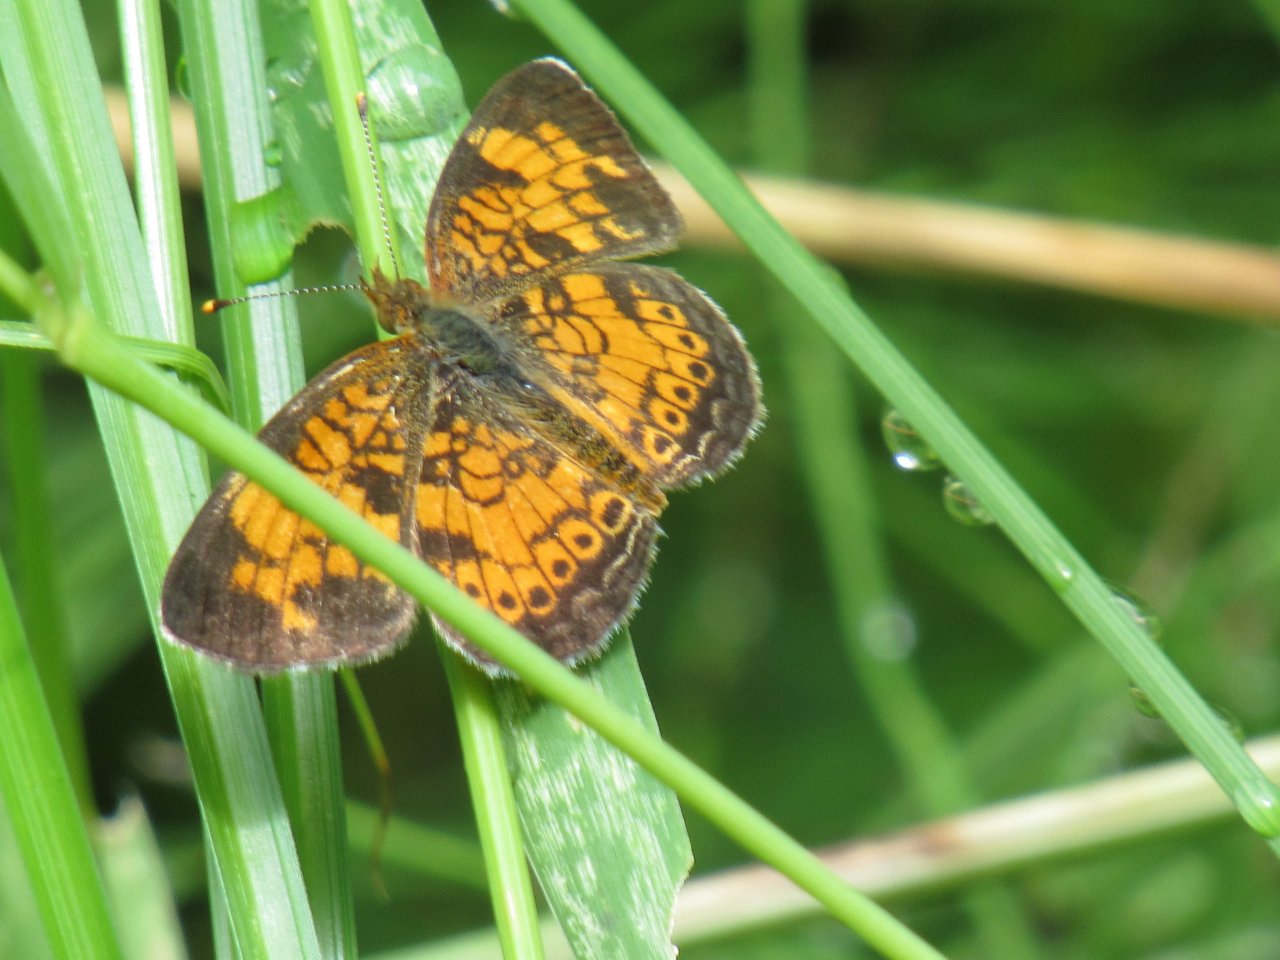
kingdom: Animalia
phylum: Arthropoda
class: Insecta
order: Lepidoptera
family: Nymphalidae
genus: Phyciodes
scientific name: Phyciodes tharos
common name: Pearl Crescent
